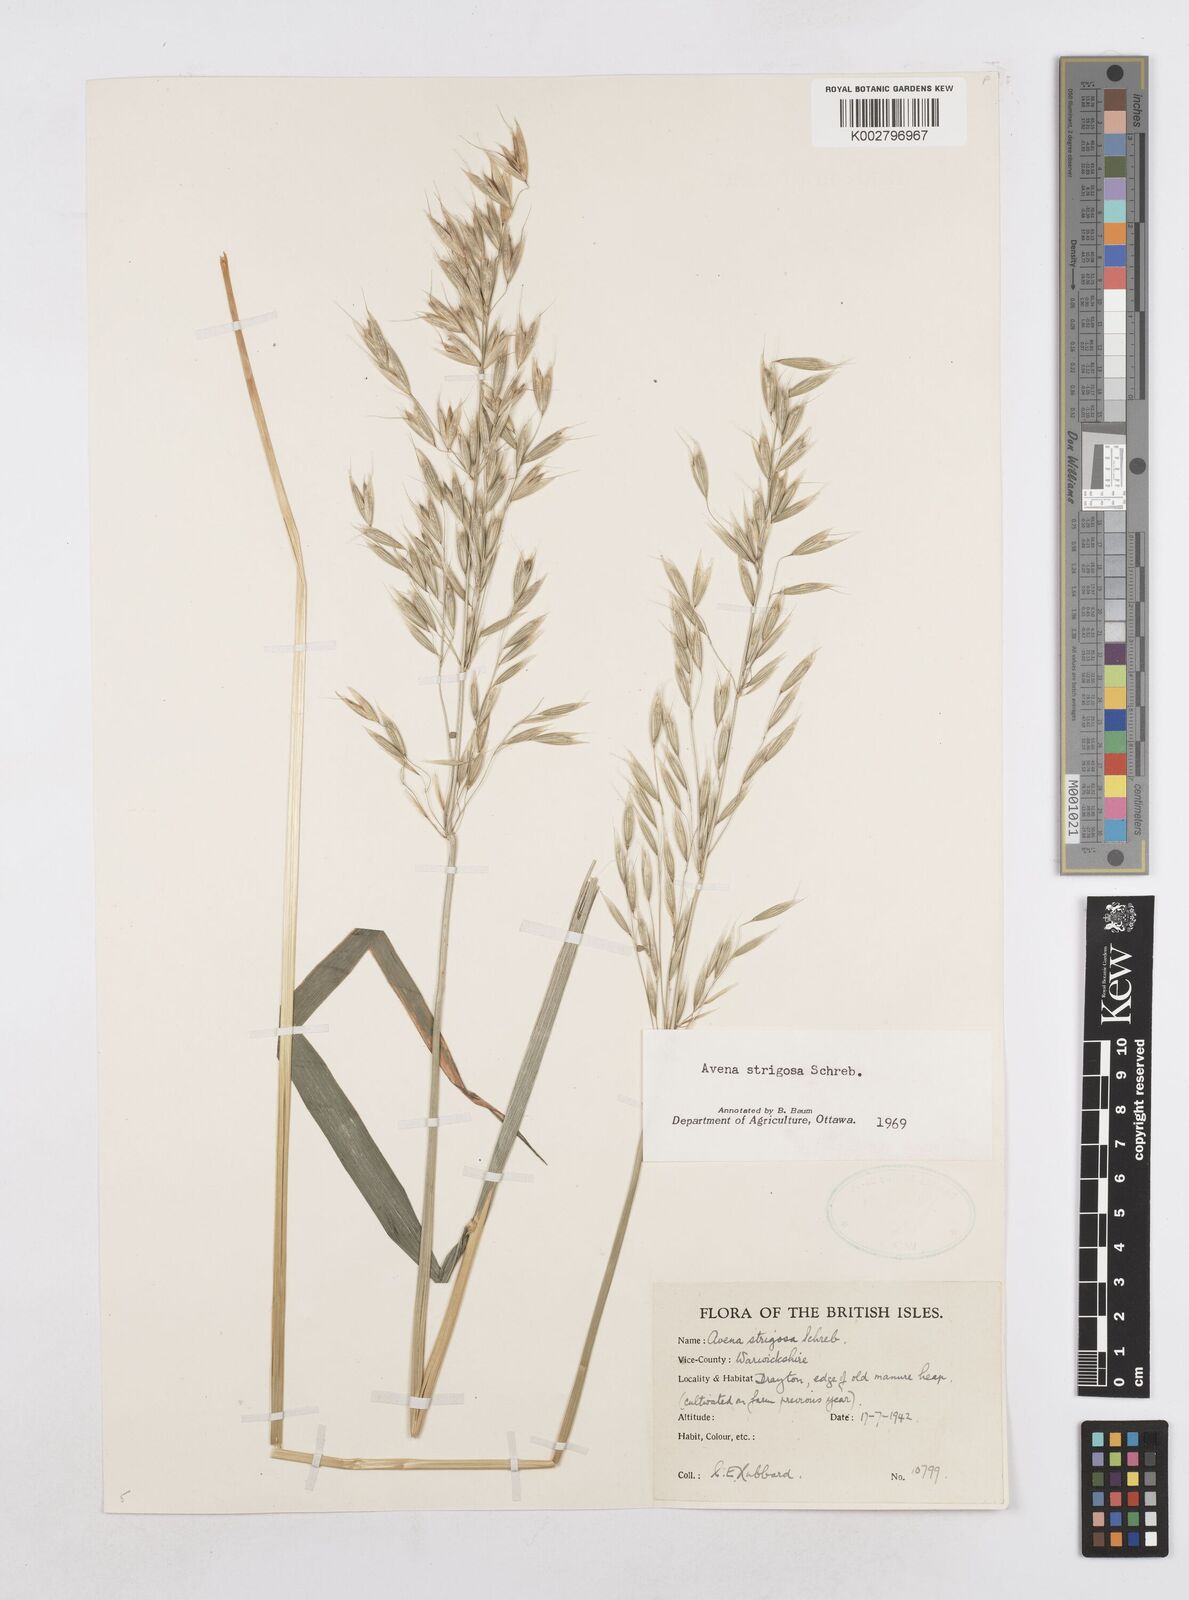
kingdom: Plantae
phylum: Tracheophyta
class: Liliopsida
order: Poales
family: Poaceae
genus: Avena
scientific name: Avena strigosa
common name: Bristle oat
